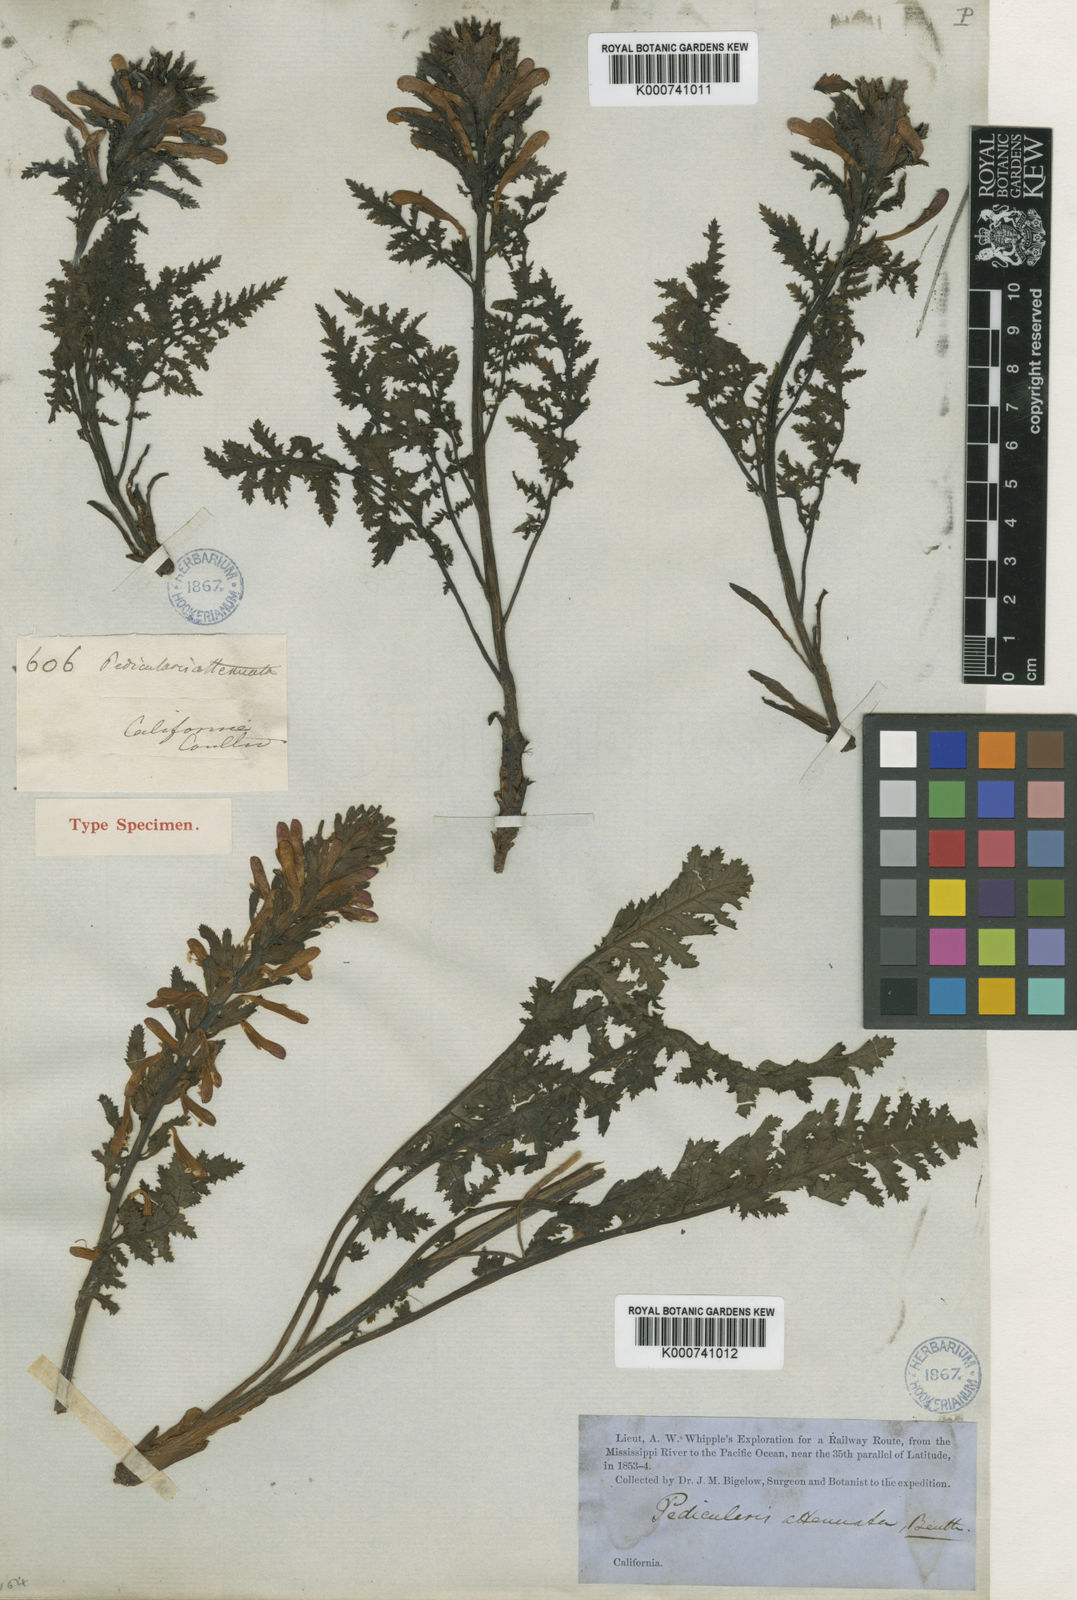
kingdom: Plantae
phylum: Tracheophyta
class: Magnoliopsida
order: Lamiales
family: Orobanchaceae
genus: Pedicularis
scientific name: Pedicularis densiflora
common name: Indian warrior
